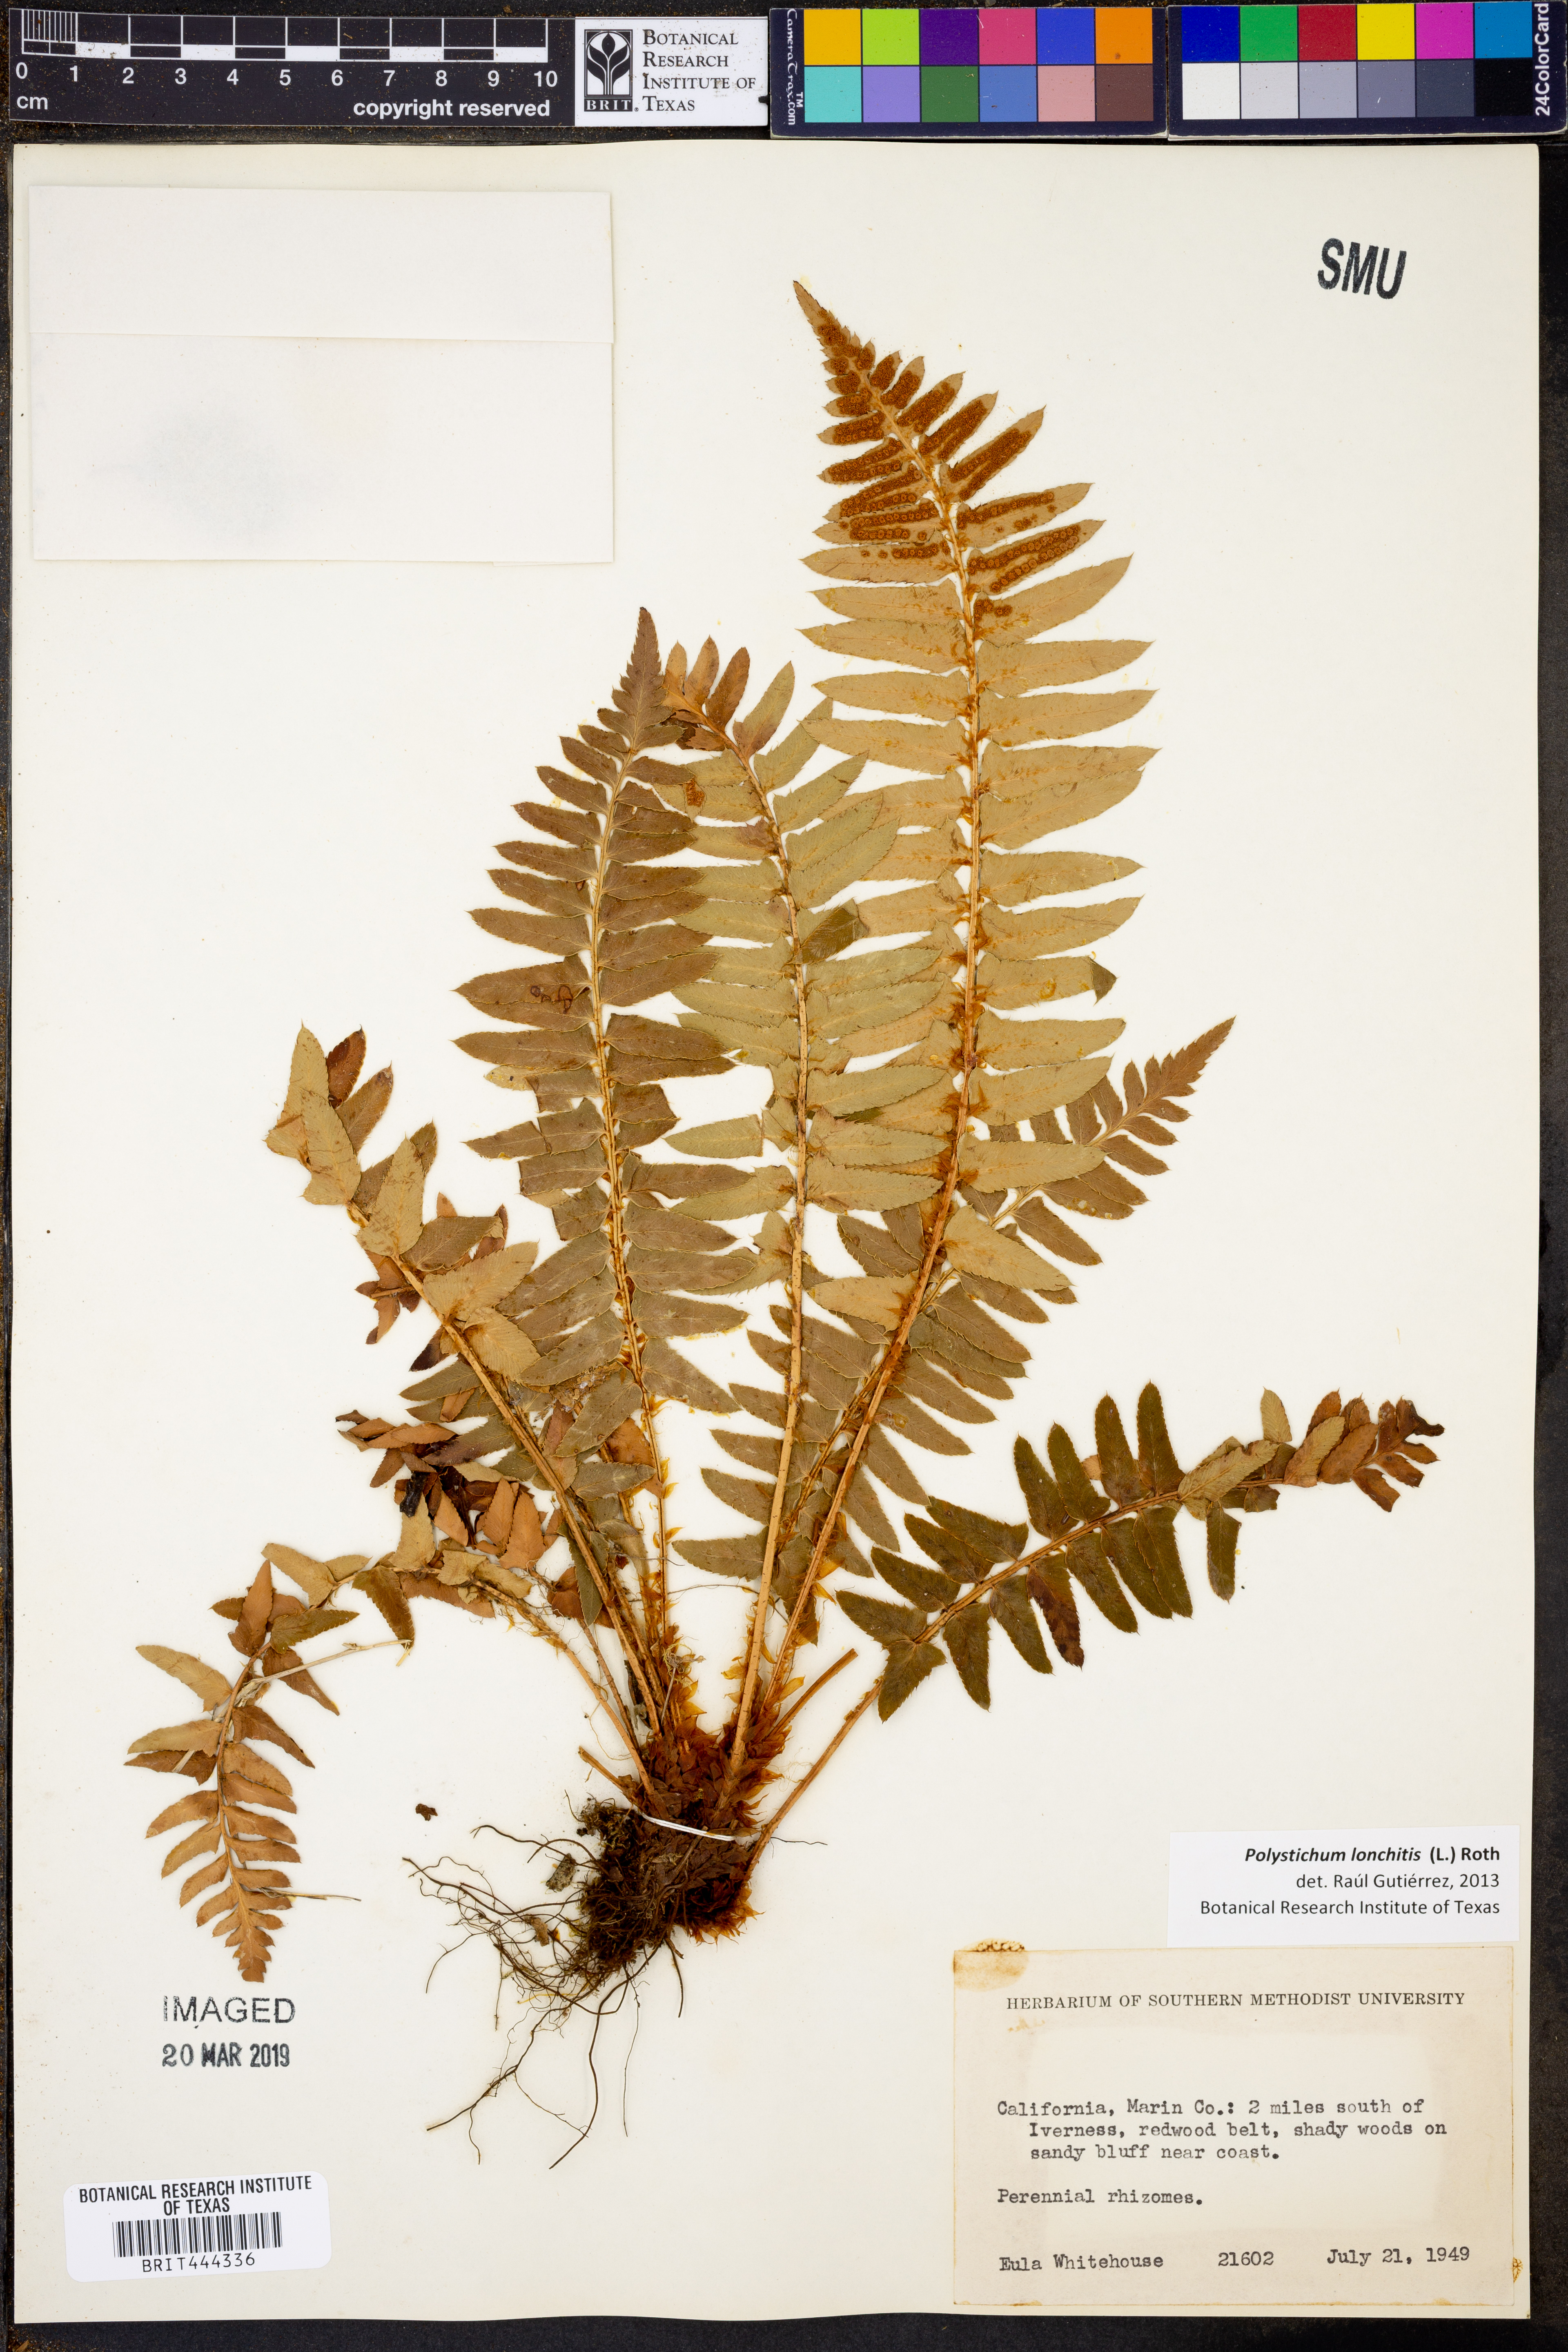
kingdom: Plantae
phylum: Tracheophyta
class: Polypodiopsida
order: Polypodiales
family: Dryopteridaceae
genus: Polystichum
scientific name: Polystichum lonchitis
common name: Holly fern
